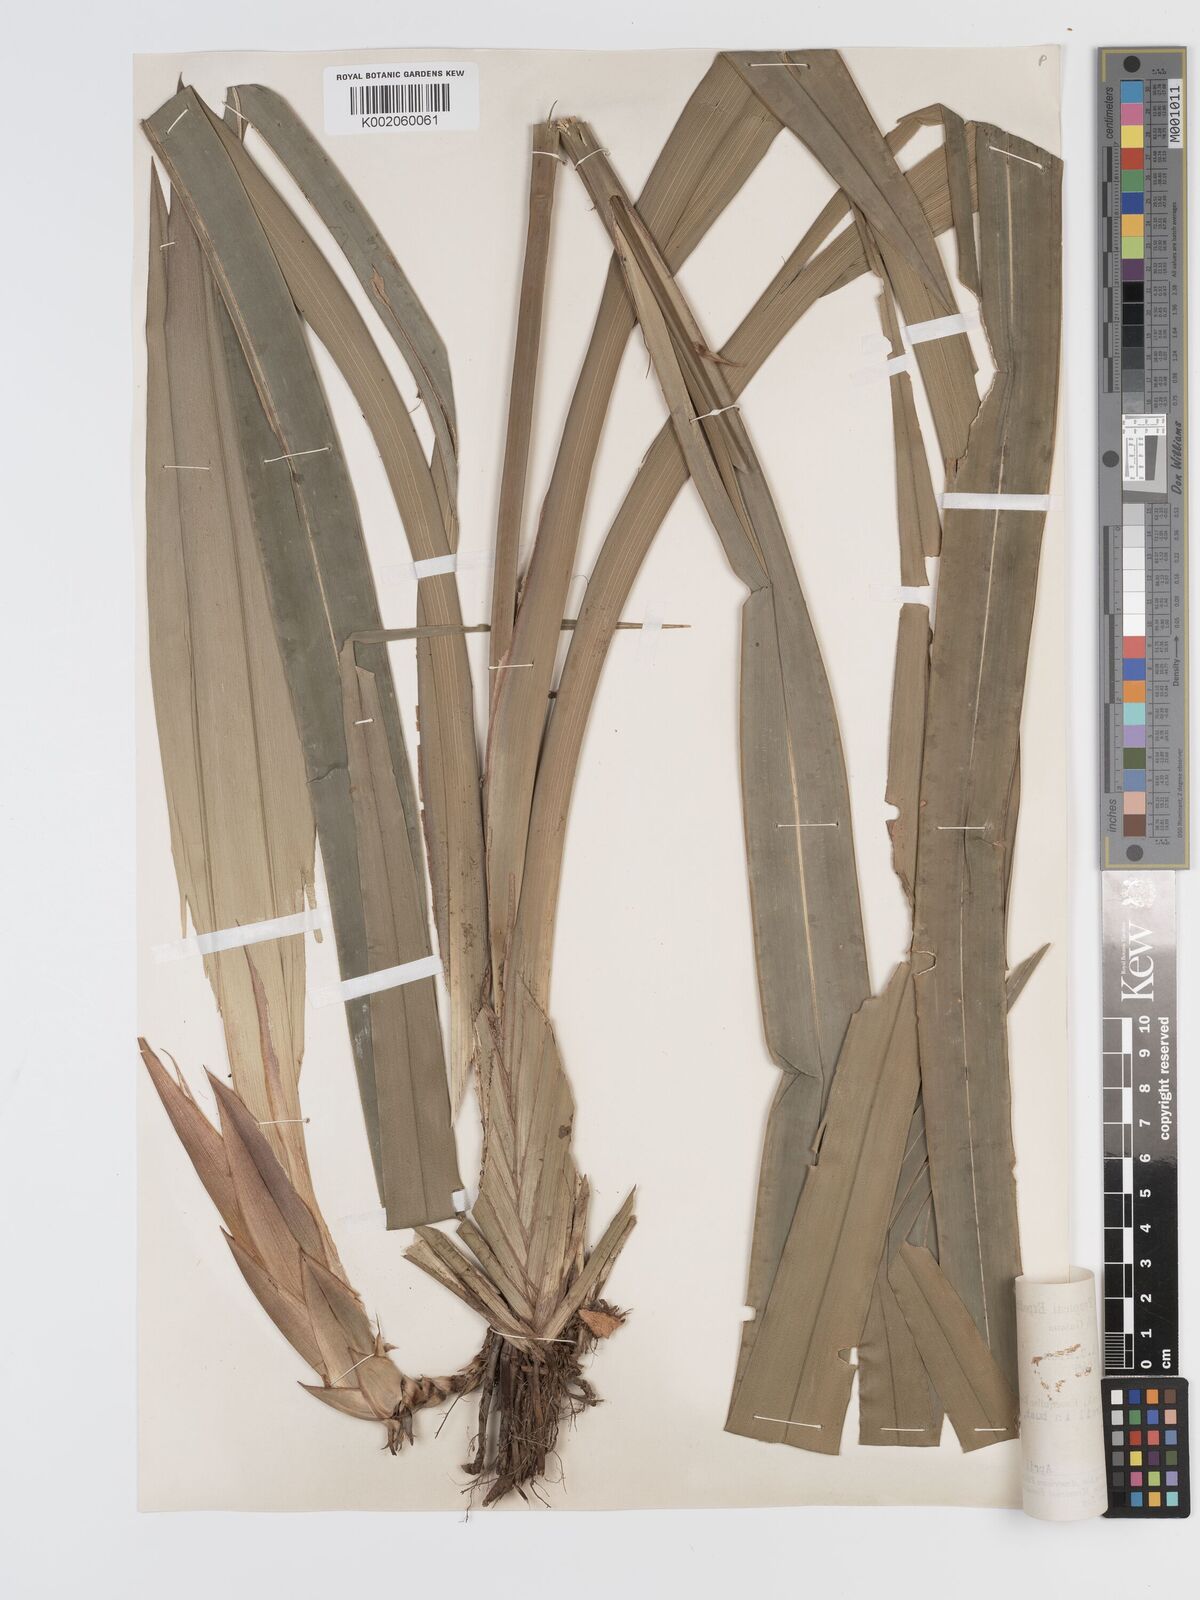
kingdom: Plantae
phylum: Tracheophyta
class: Liliopsida
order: Poales
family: Cyperaceae
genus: Diplasia
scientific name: Diplasia karatifolia
